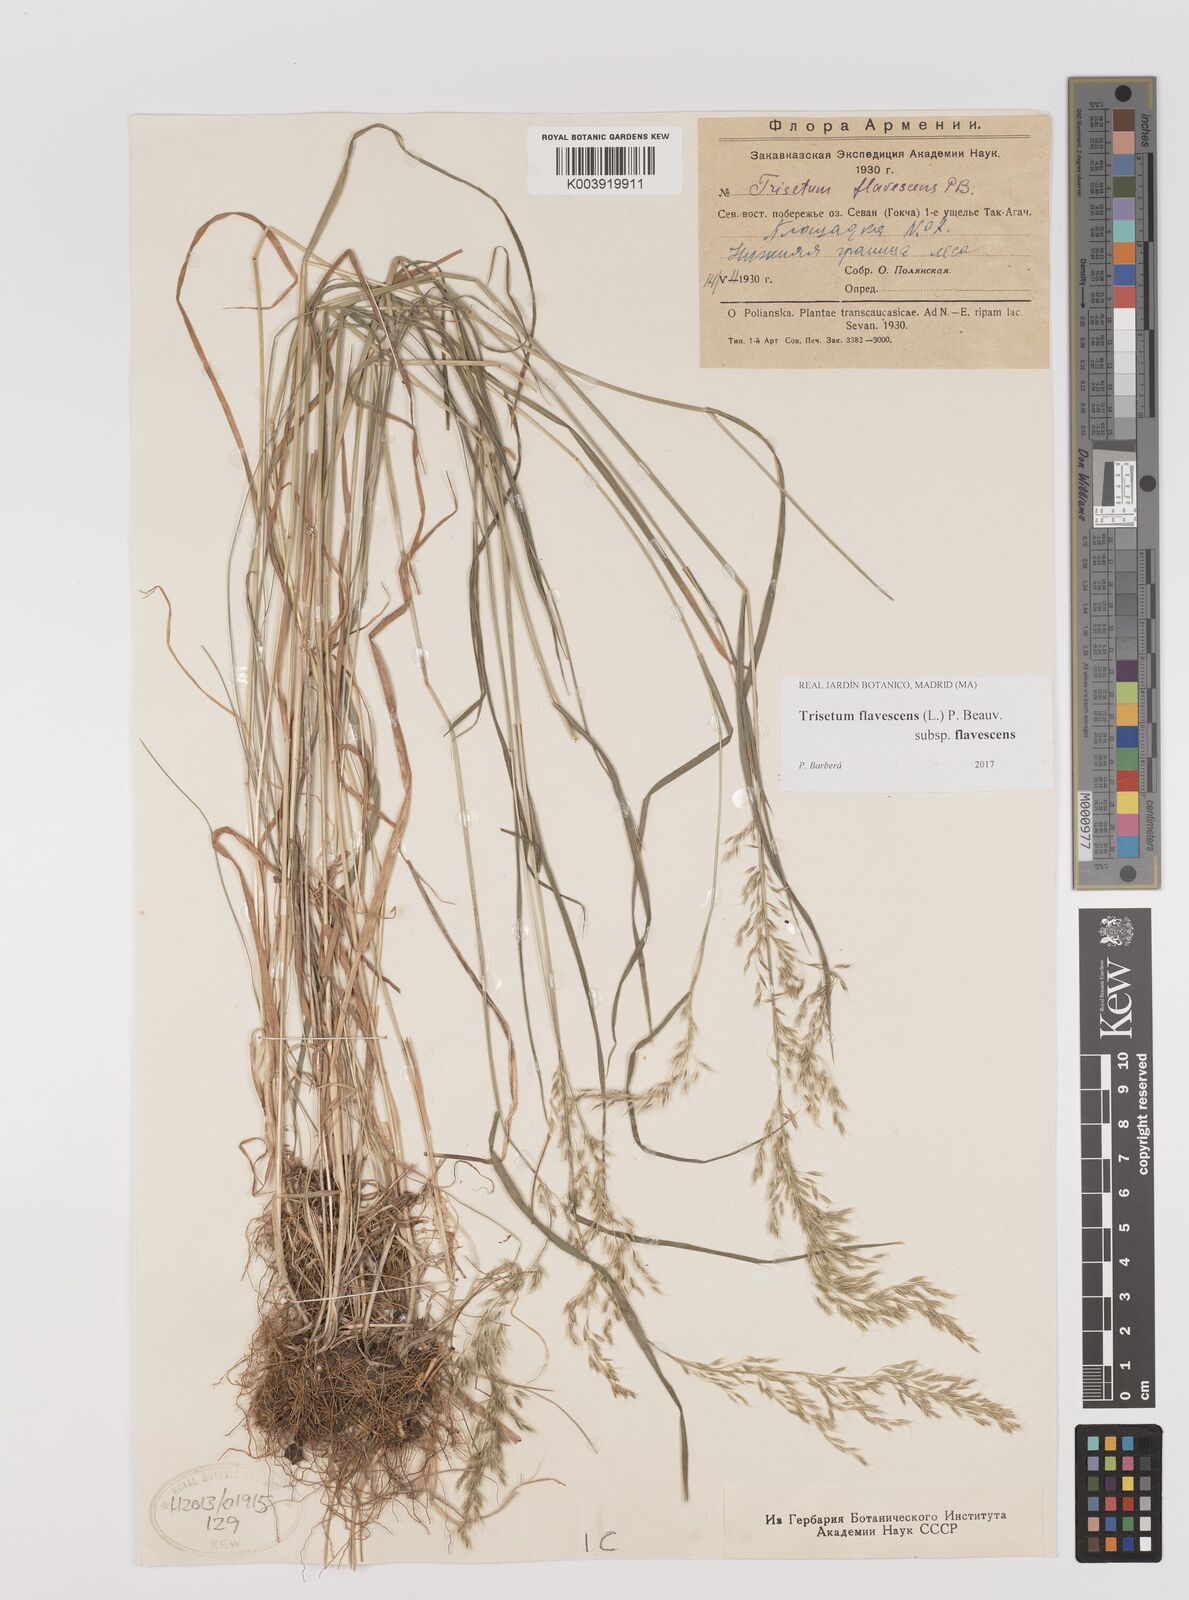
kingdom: Plantae
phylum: Tracheophyta
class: Liliopsida
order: Poales
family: Poaceae
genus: Trisetum
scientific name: Trisetum flavescens
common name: Yellow oat-grass
